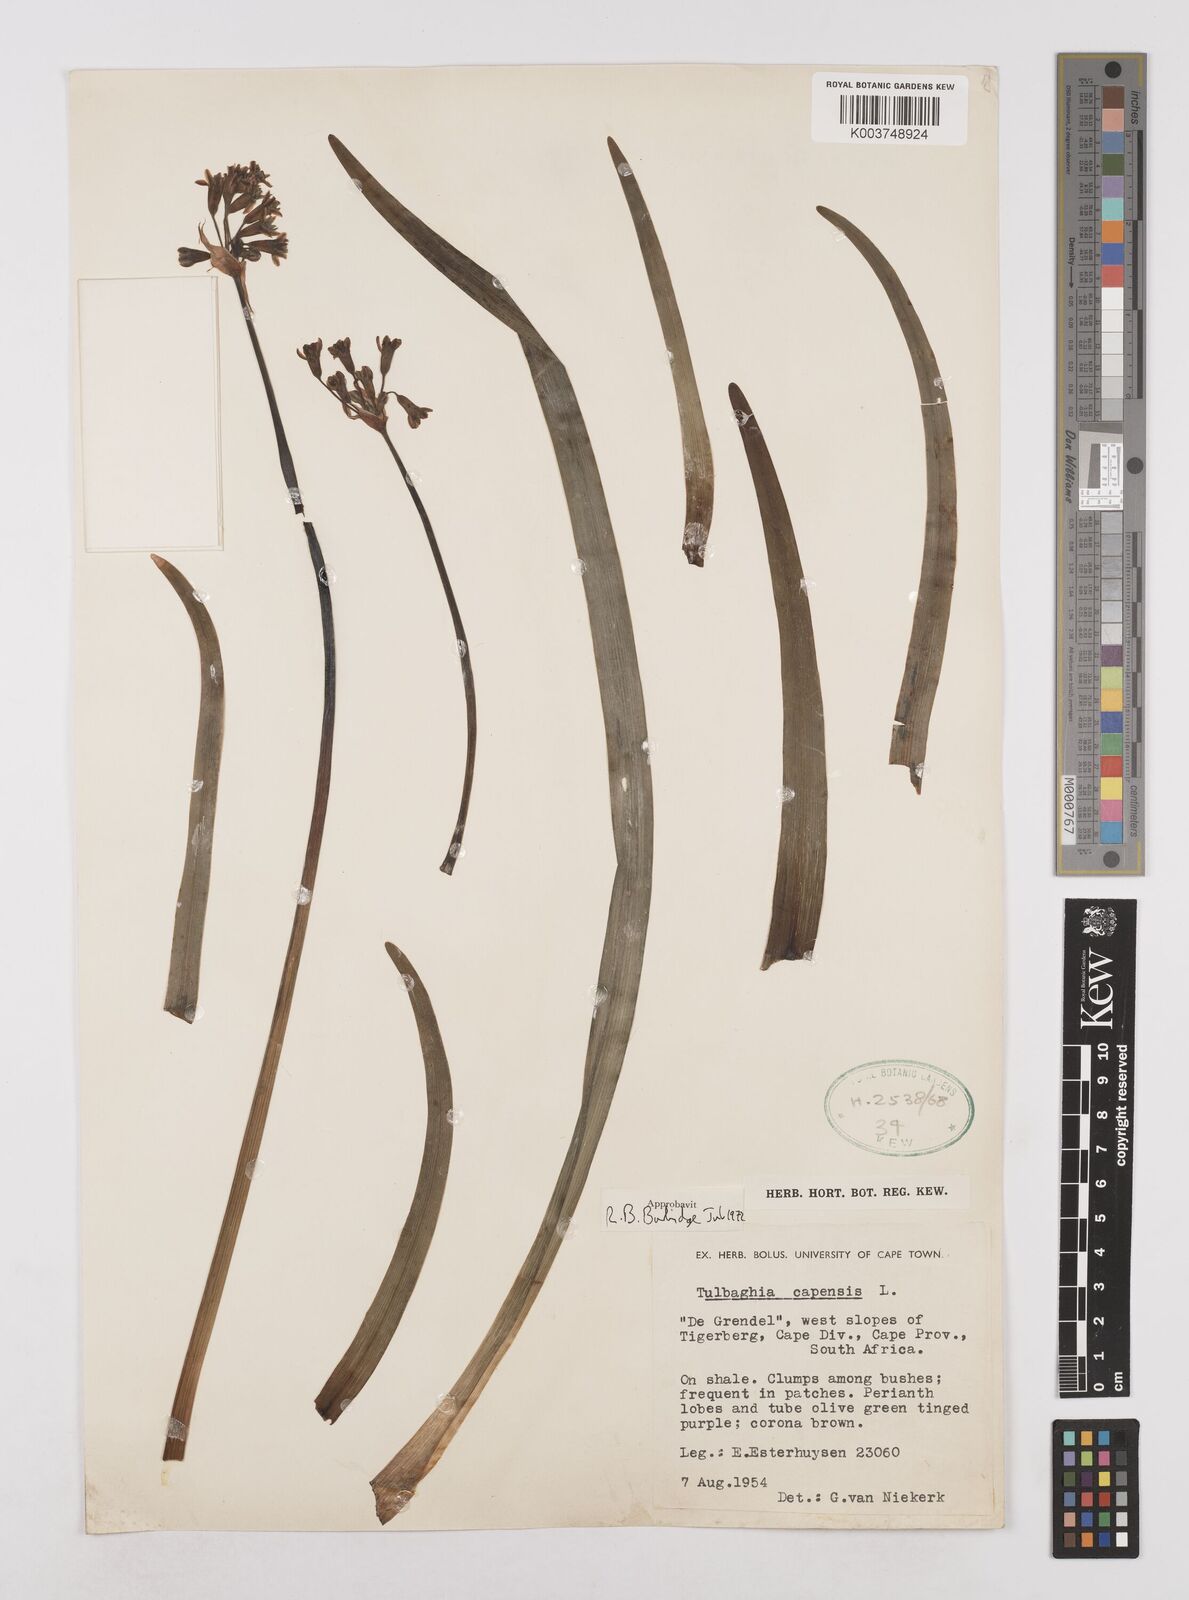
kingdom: Plantae
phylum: Tracheophyta
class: Liliopsida
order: Asparagales
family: Amaryllidaceae
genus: Tulbaghia
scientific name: Tulbaghia capensis
